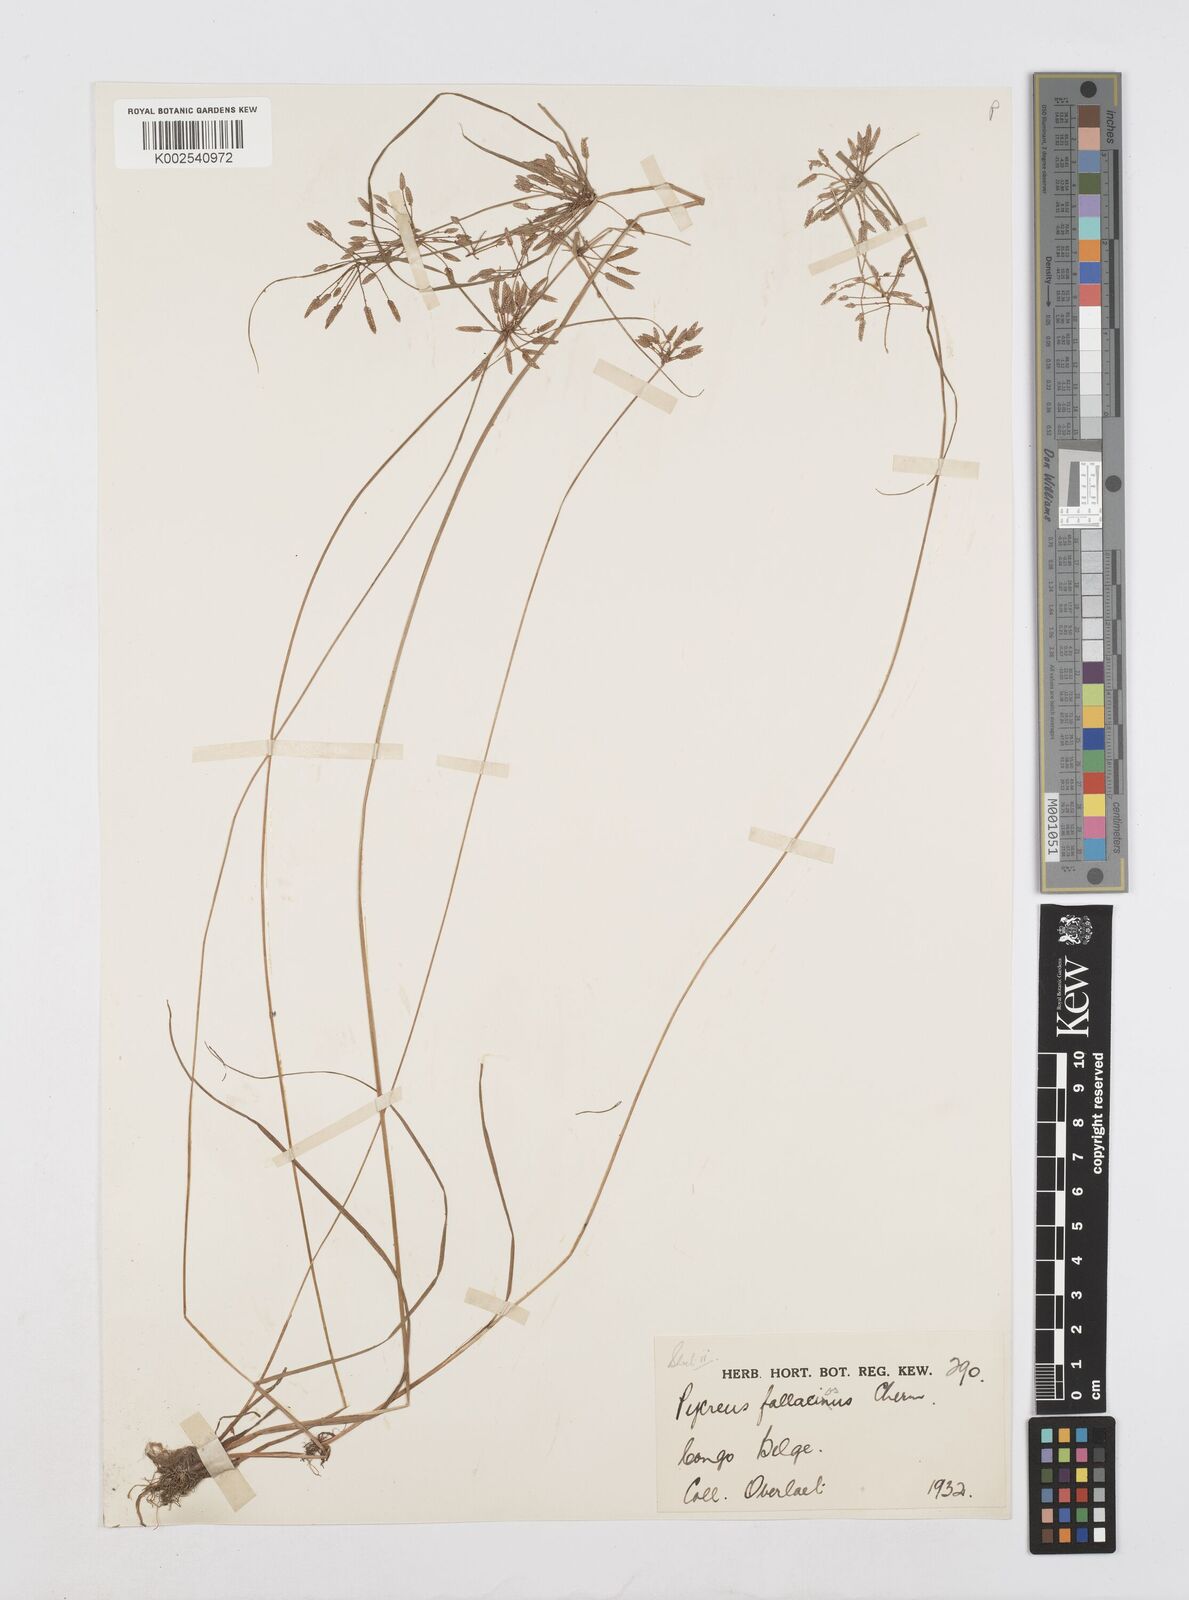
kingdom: Plantae
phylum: Tracheophyta
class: Liliopsida
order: Poales
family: Cyperaceae
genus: Cyperus
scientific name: Cyperus flavescens
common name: Yellow galingale
